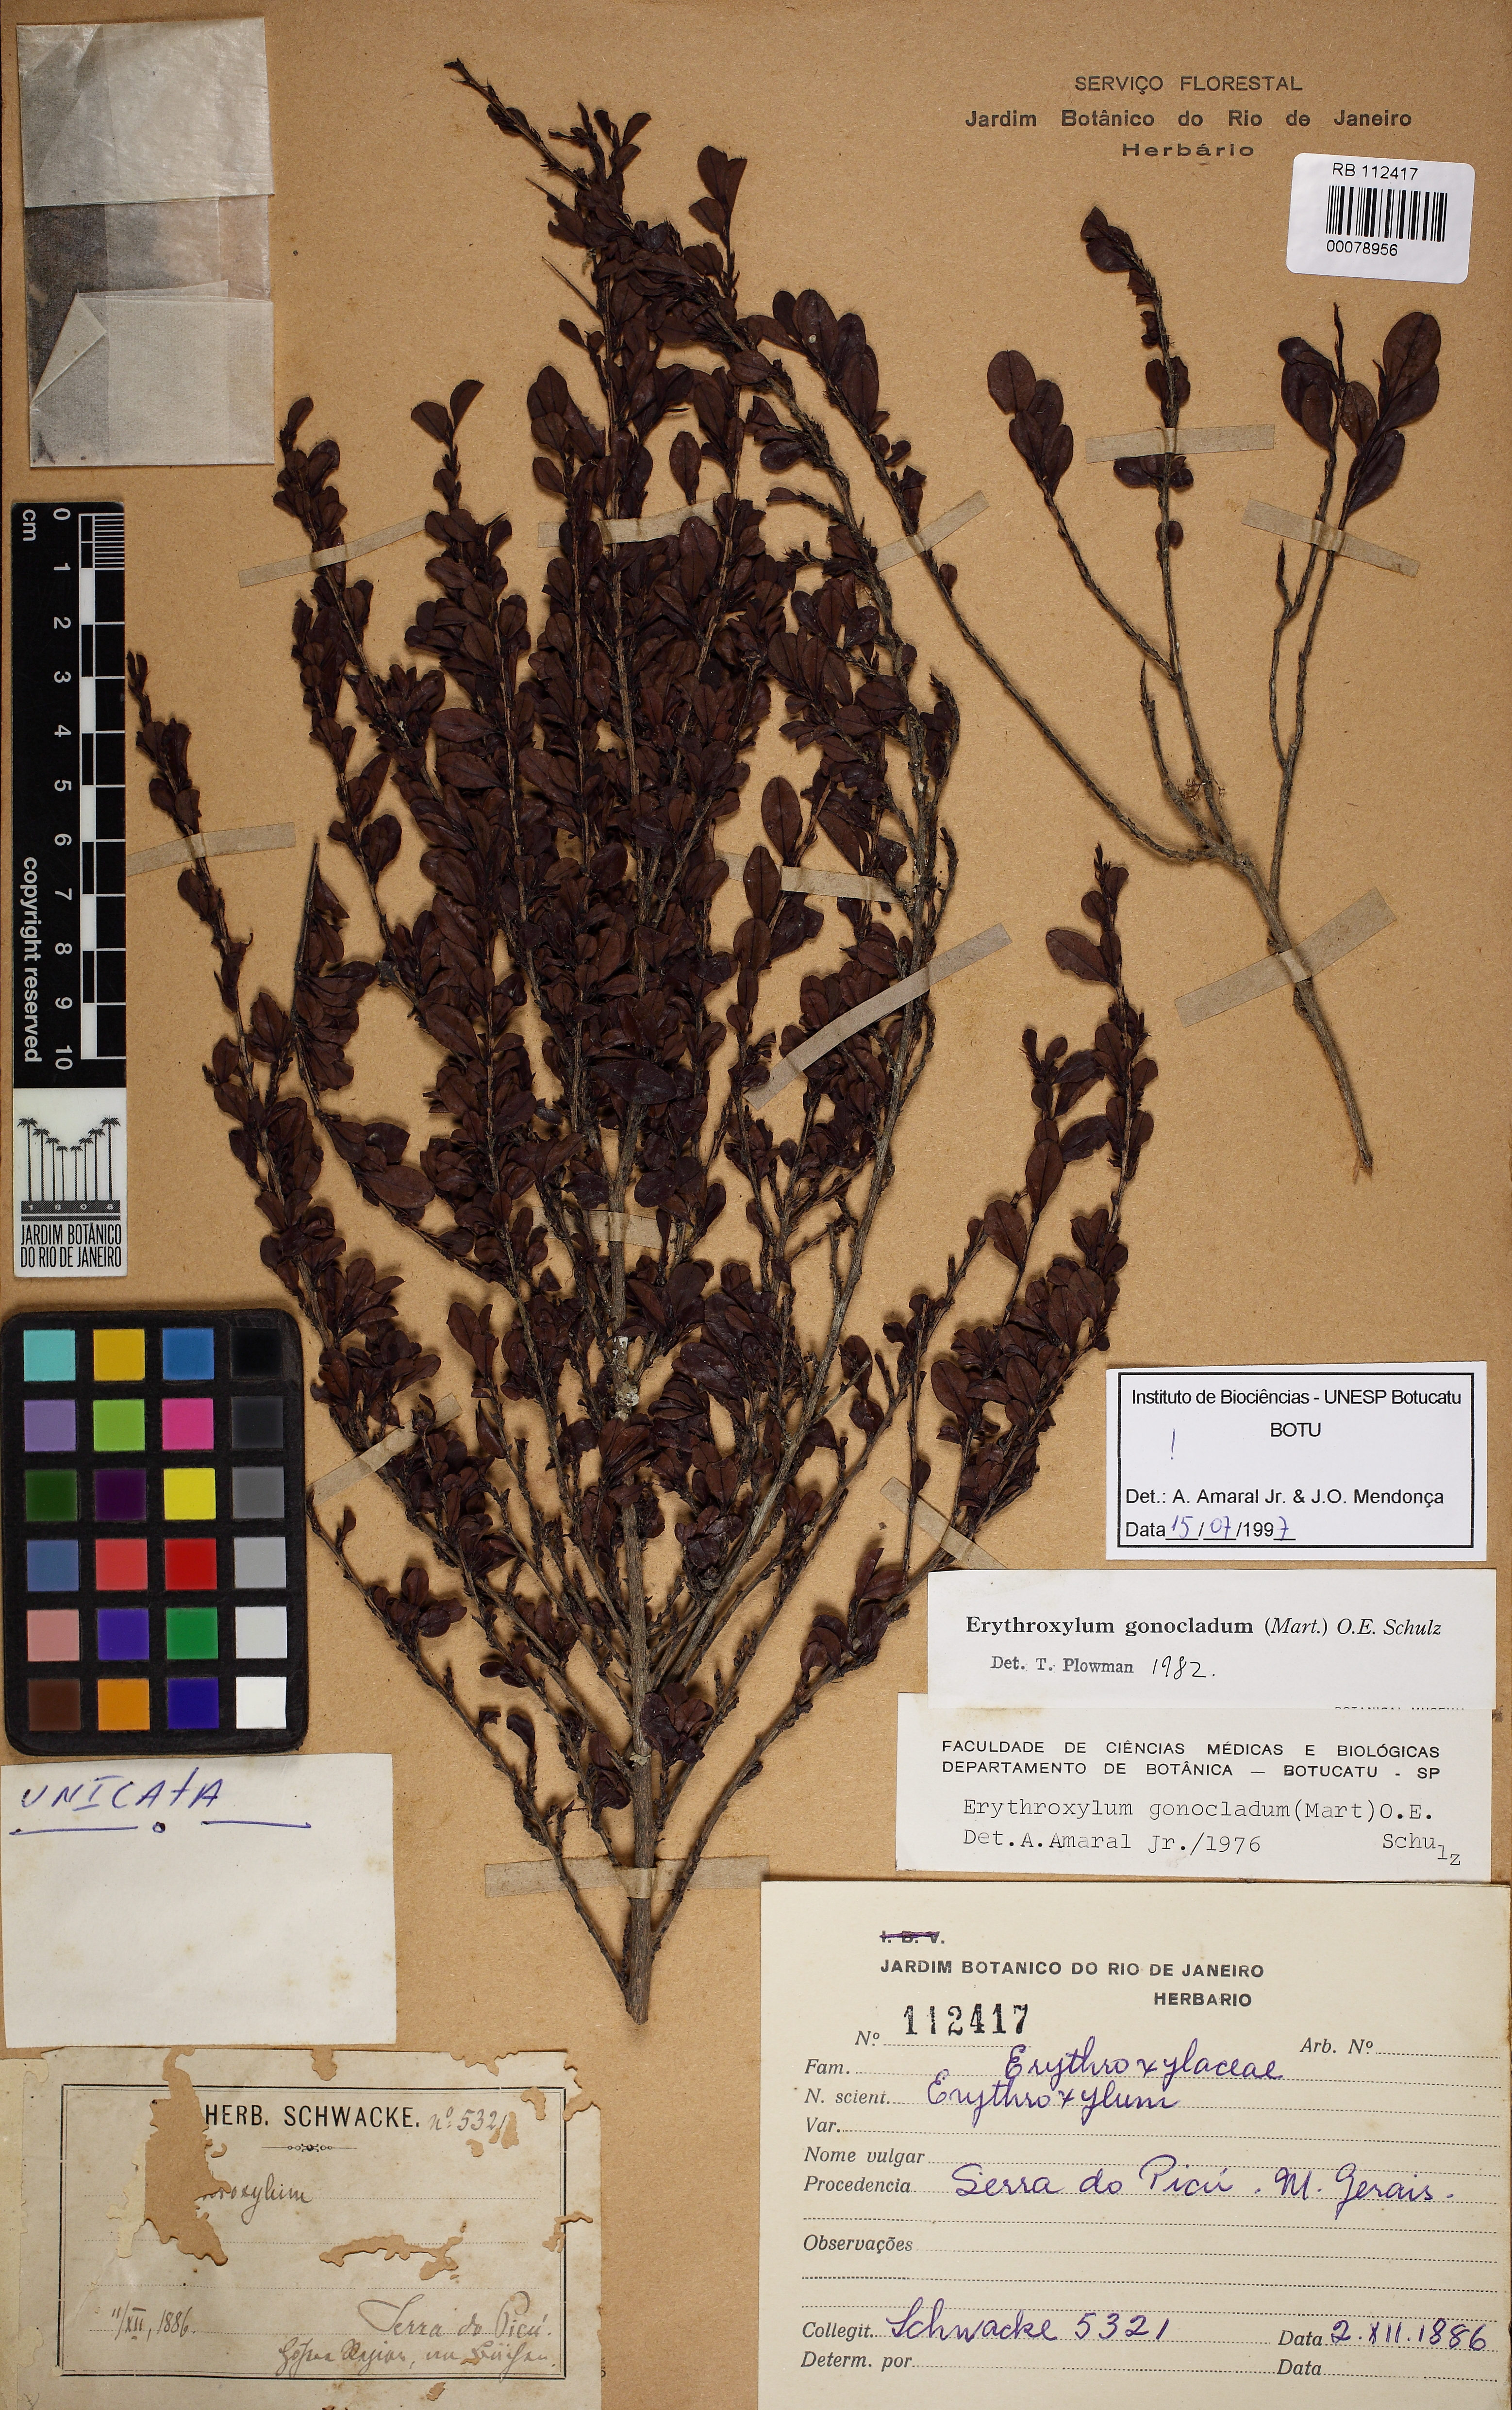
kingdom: Plantae
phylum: Tracheophyta
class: Magnoliopsida
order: Malpighiales
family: Erythroxylaceae
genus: Erythroxylum
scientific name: Erythroxylum gonoclados
